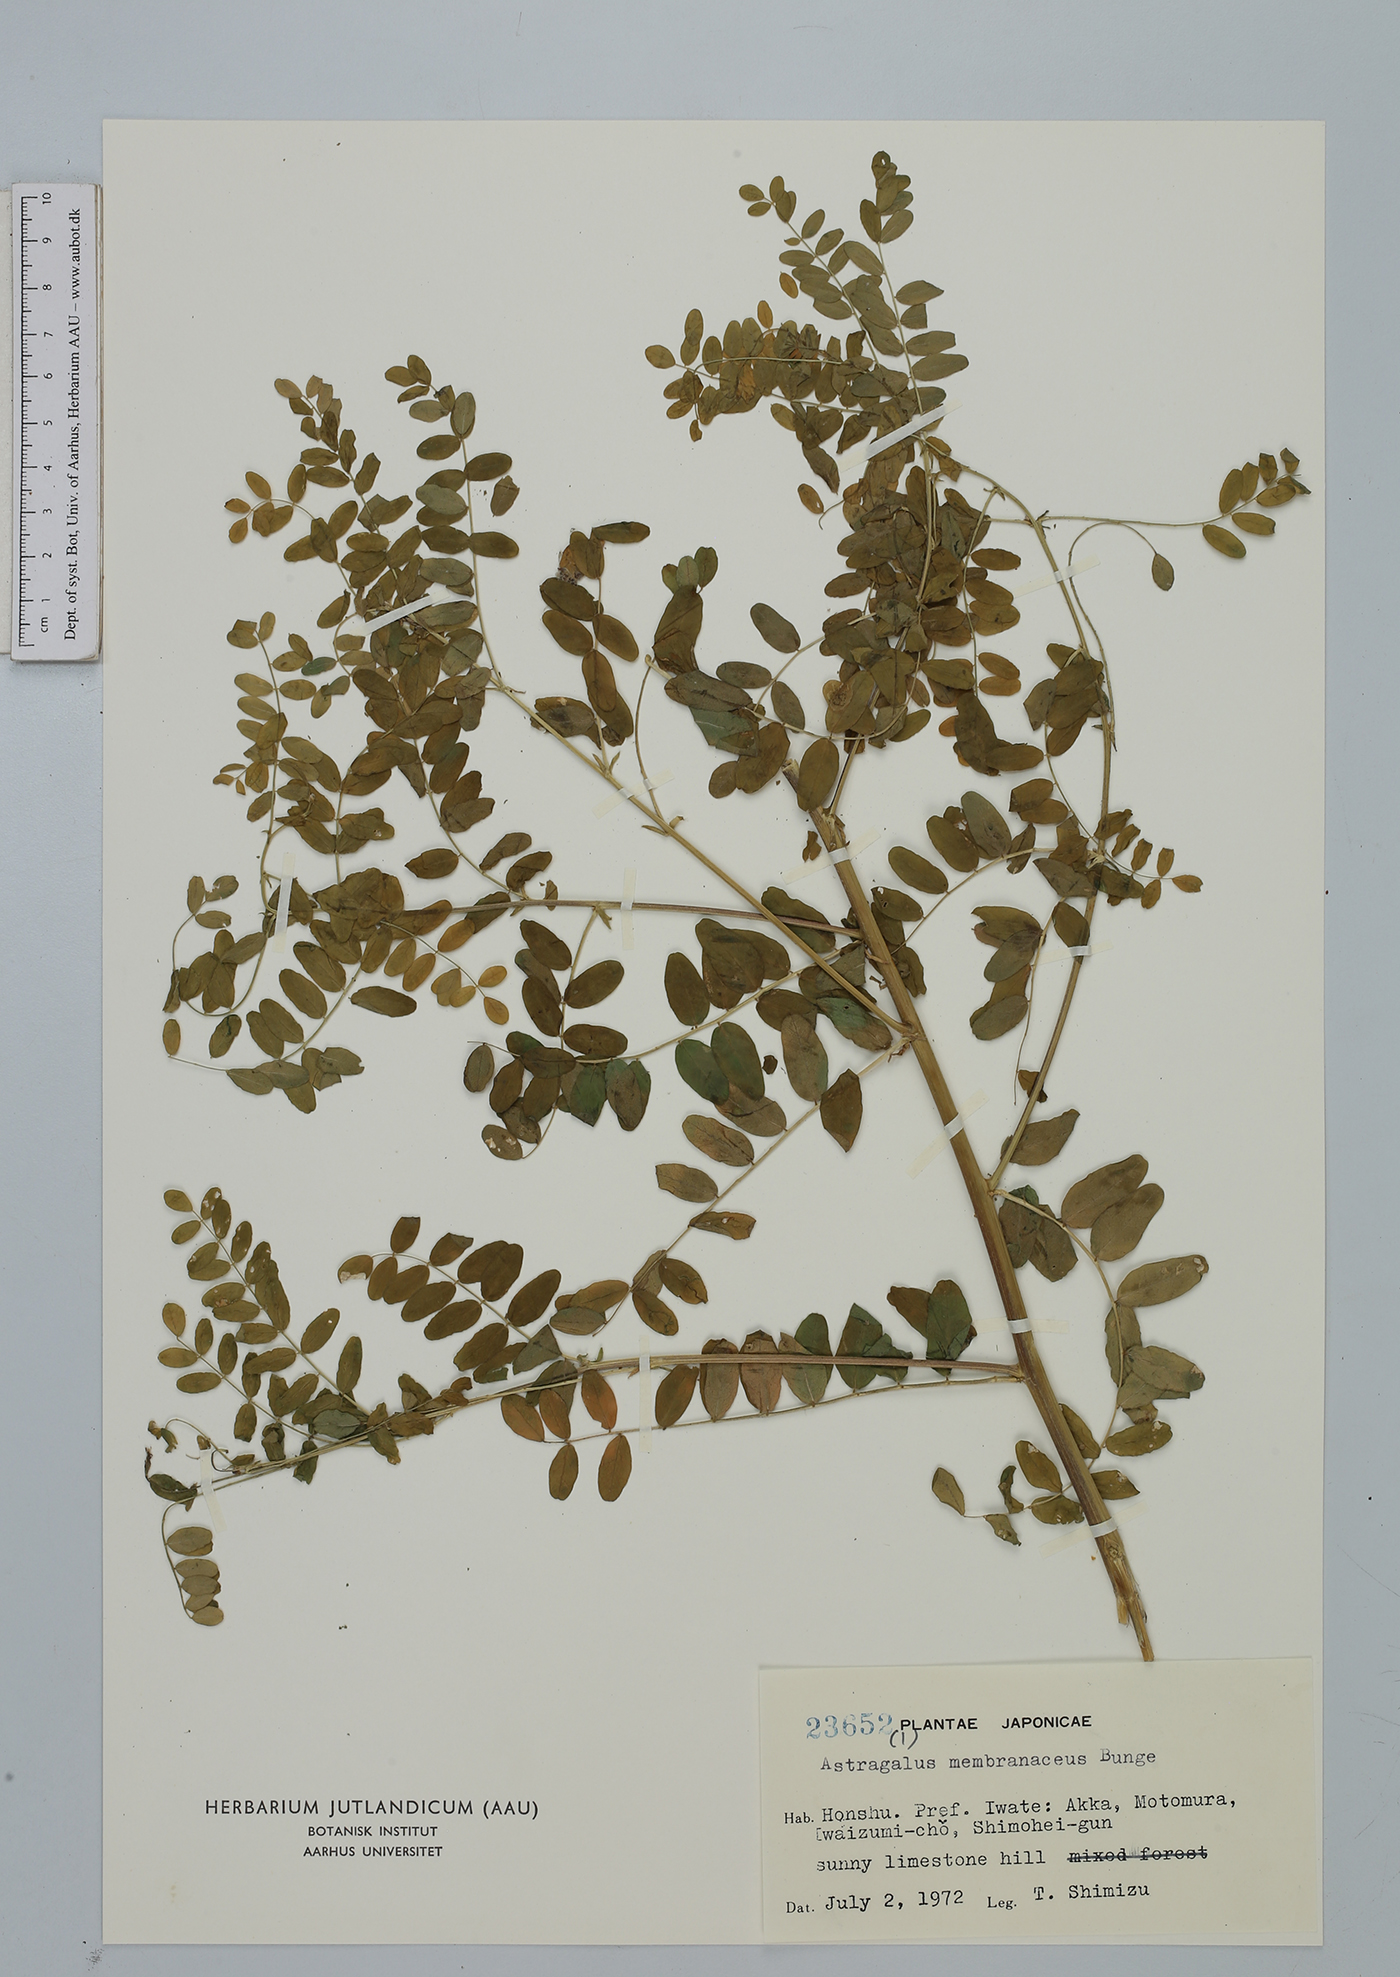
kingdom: Plantae
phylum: Tracheophyta
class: Magnoliopsida
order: Fabales
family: Fabaceae
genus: Astragalus
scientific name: Astragalus mongholicus
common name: Membranous milk-vetch
